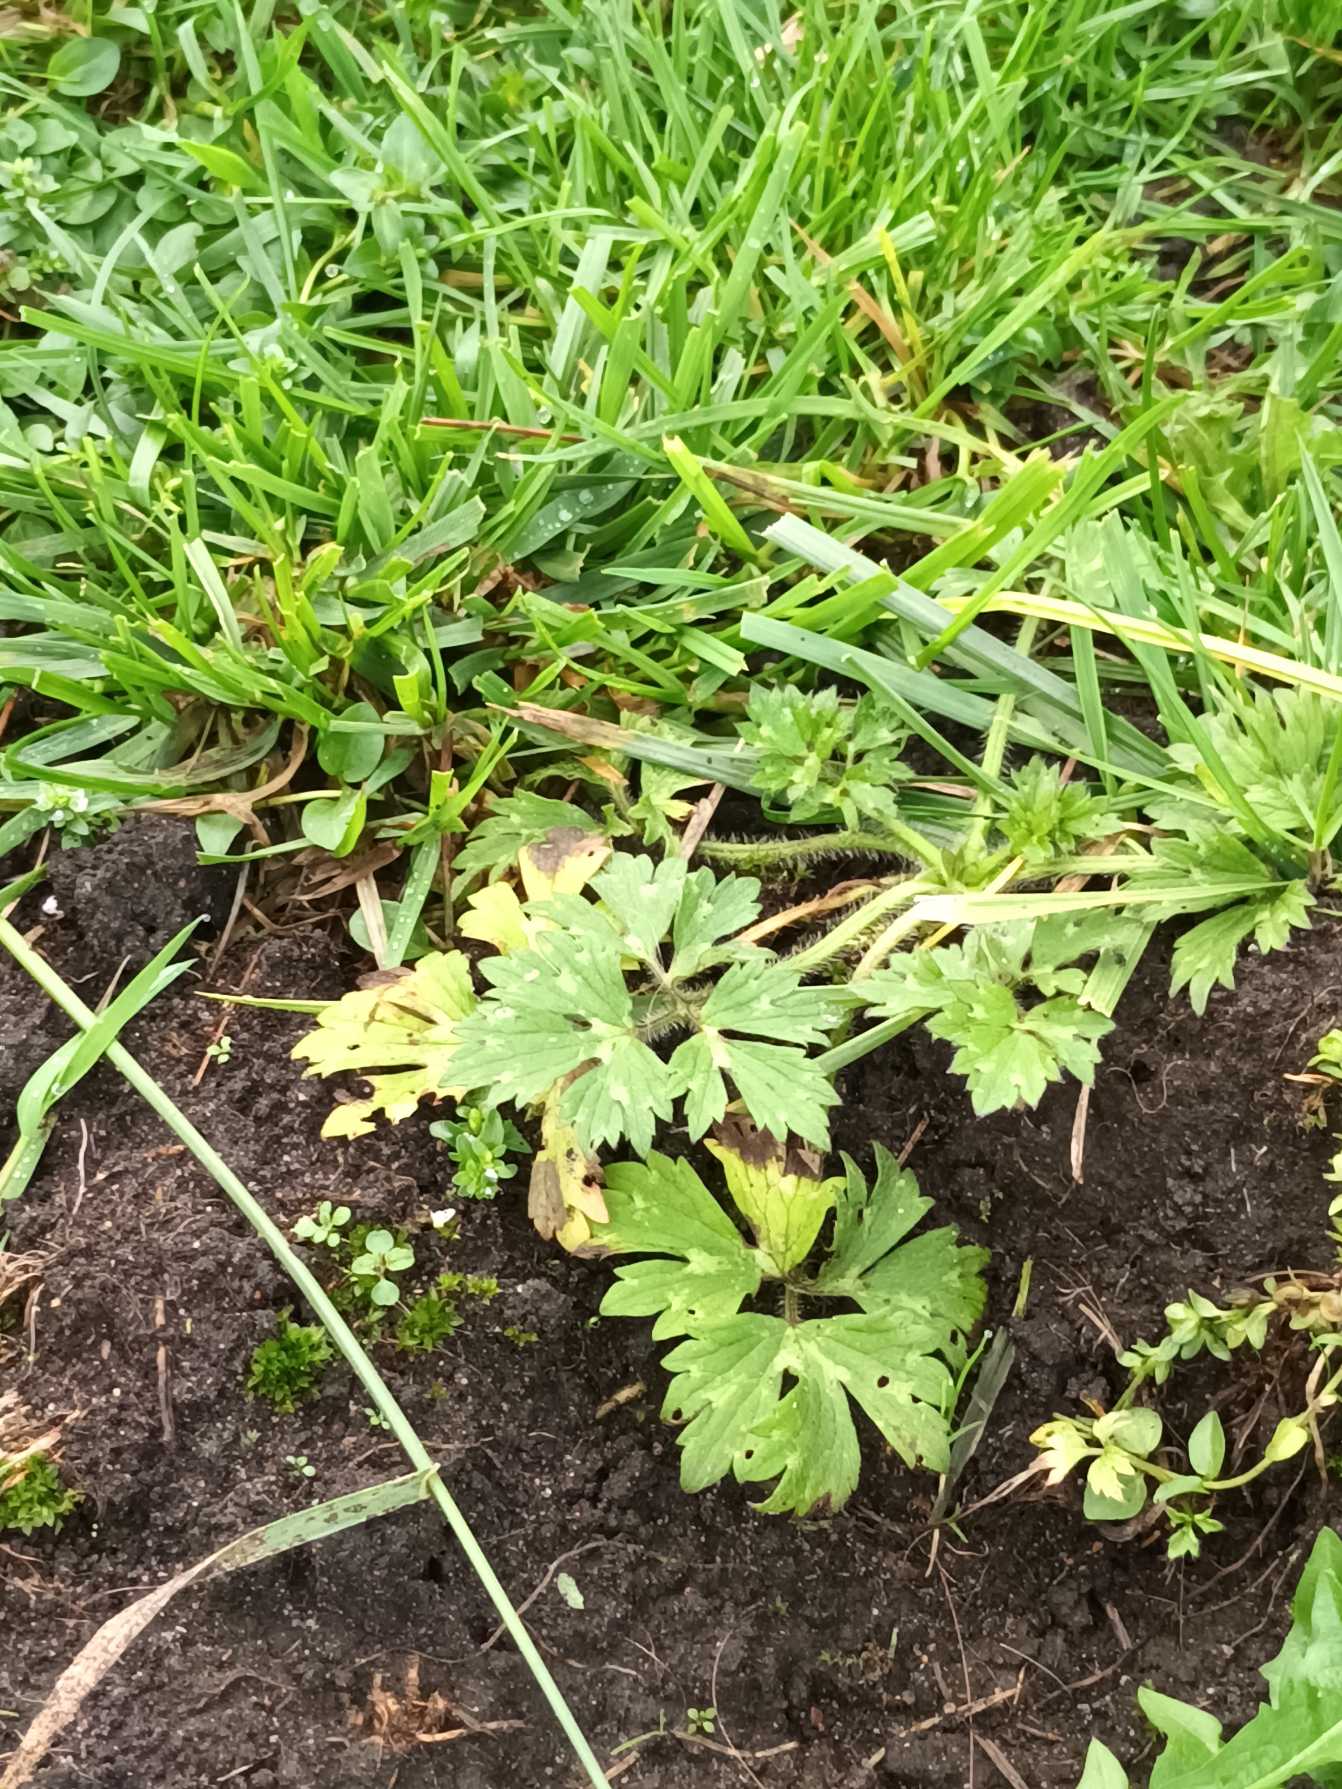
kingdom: Plantae
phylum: Tracheophyta
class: Magnoliopsida
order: Ranunculales
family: Ranunculaceae
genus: Ranunculus
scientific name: Ranunculus repens
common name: Lav ranunkel
